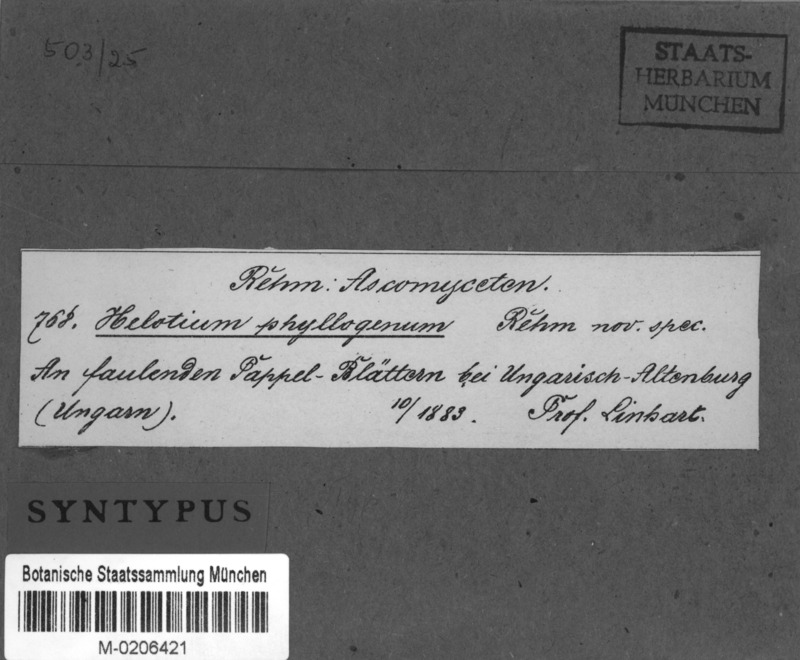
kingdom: Fungi
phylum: Ascomycota
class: Leotiomycetes
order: Helotiales
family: Helotiaceae
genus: Hymenoscyphus
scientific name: Hymenoscyphus phyllogenus
